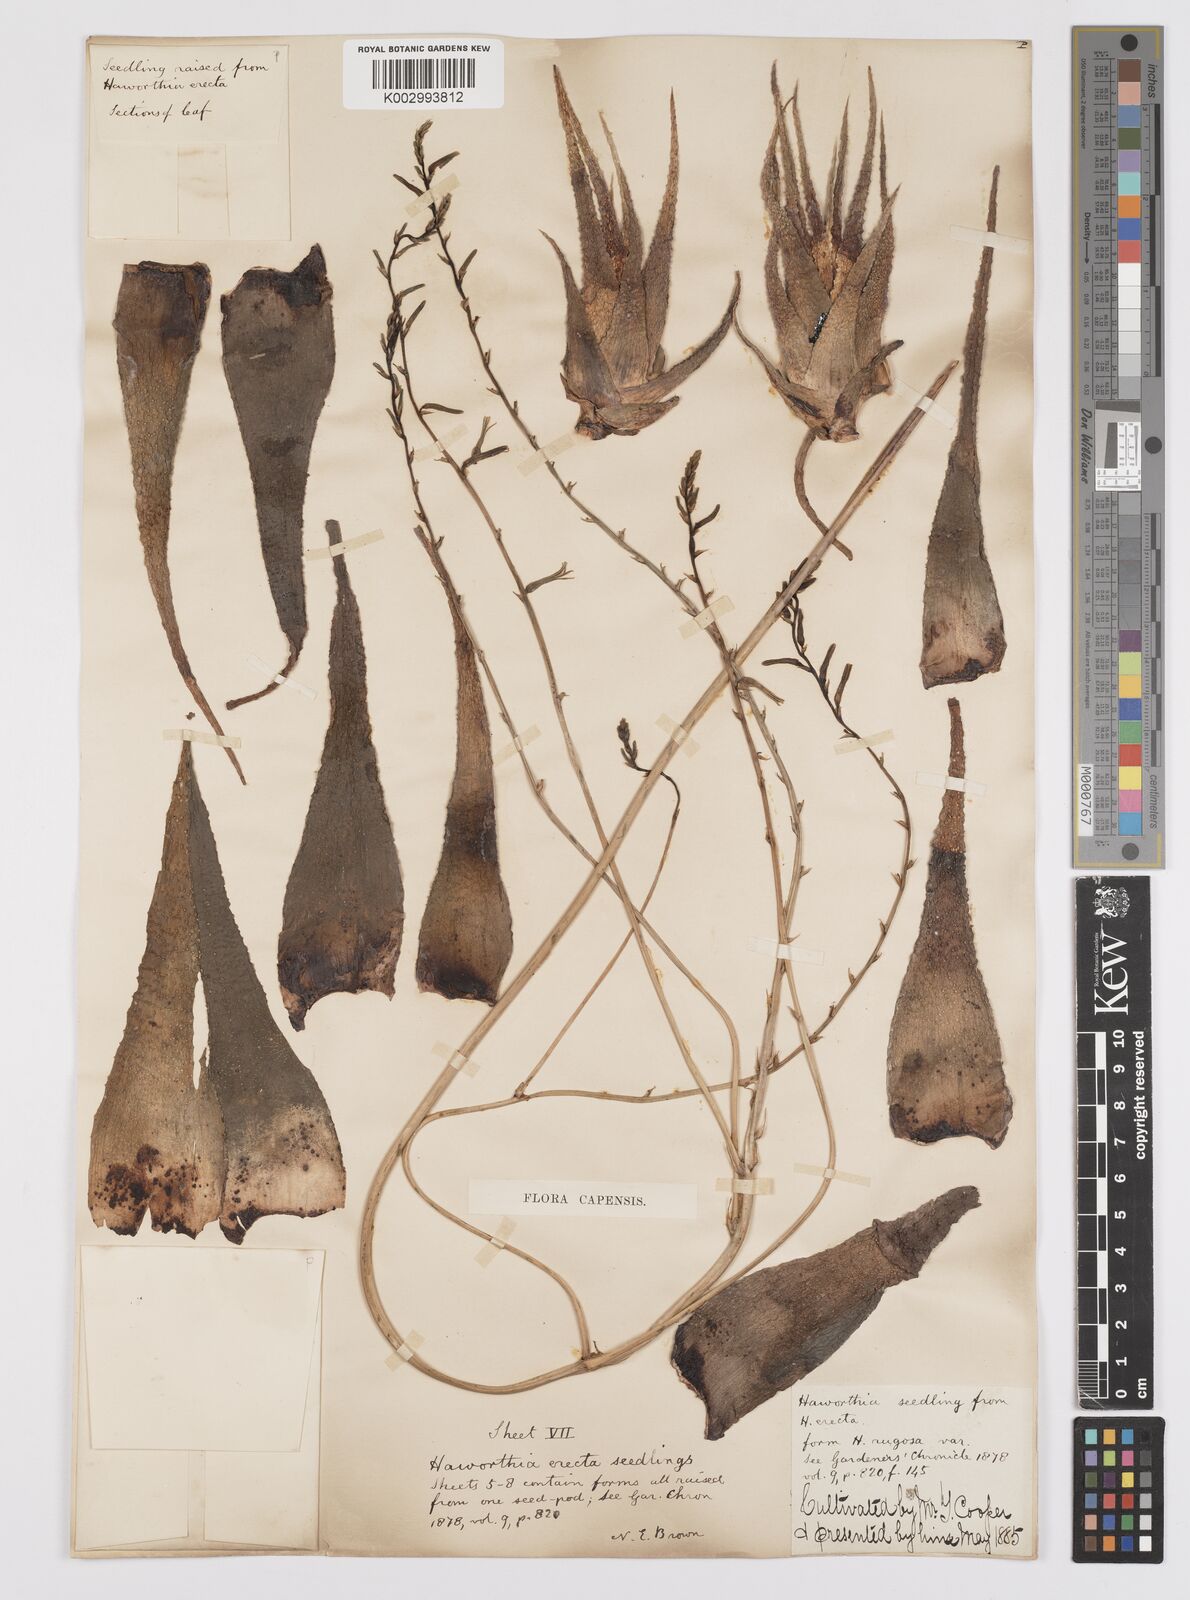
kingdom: Plantae
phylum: Tracheophyta
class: Liliopsida
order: Asparagales
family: Asphodelaceae
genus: Haworthia
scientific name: Haworthia
